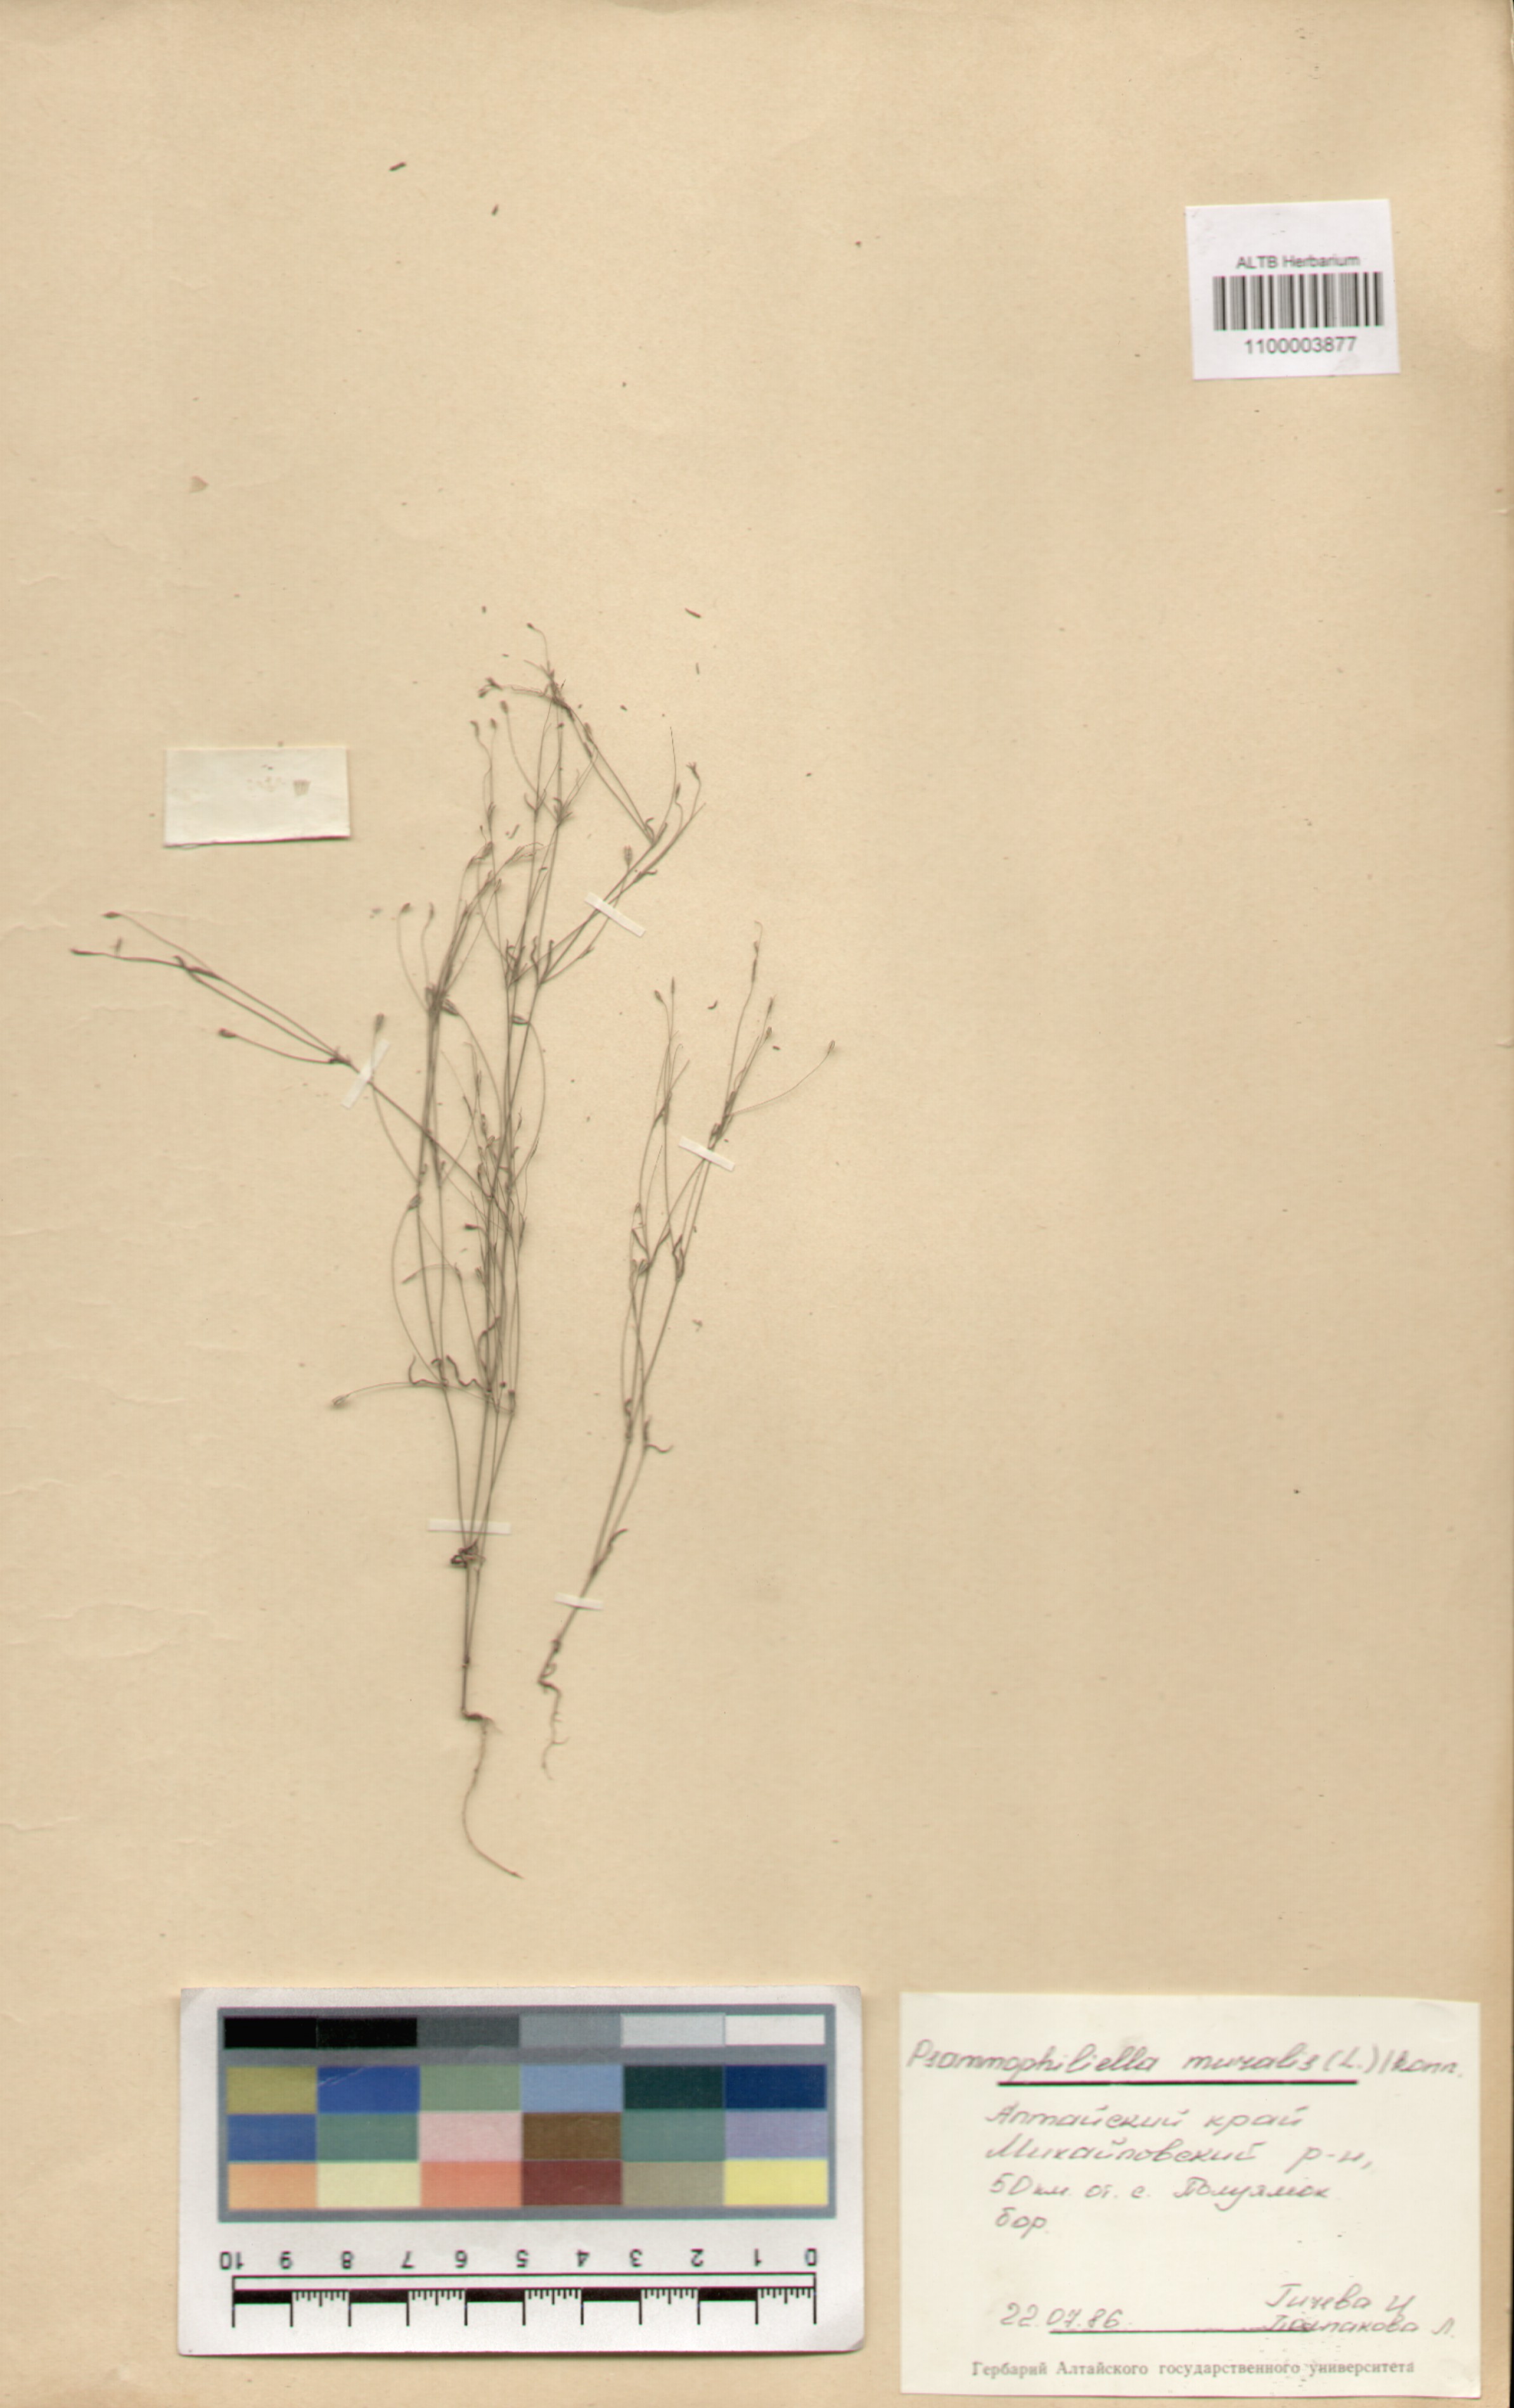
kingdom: Plantae
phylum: Tracheophyta
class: Magnoliopsida
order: Caryophyllales
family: Caryophyllaceae
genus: Psammophiliella
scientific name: Psammophiliella muralis
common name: Cushion baby's-breath
